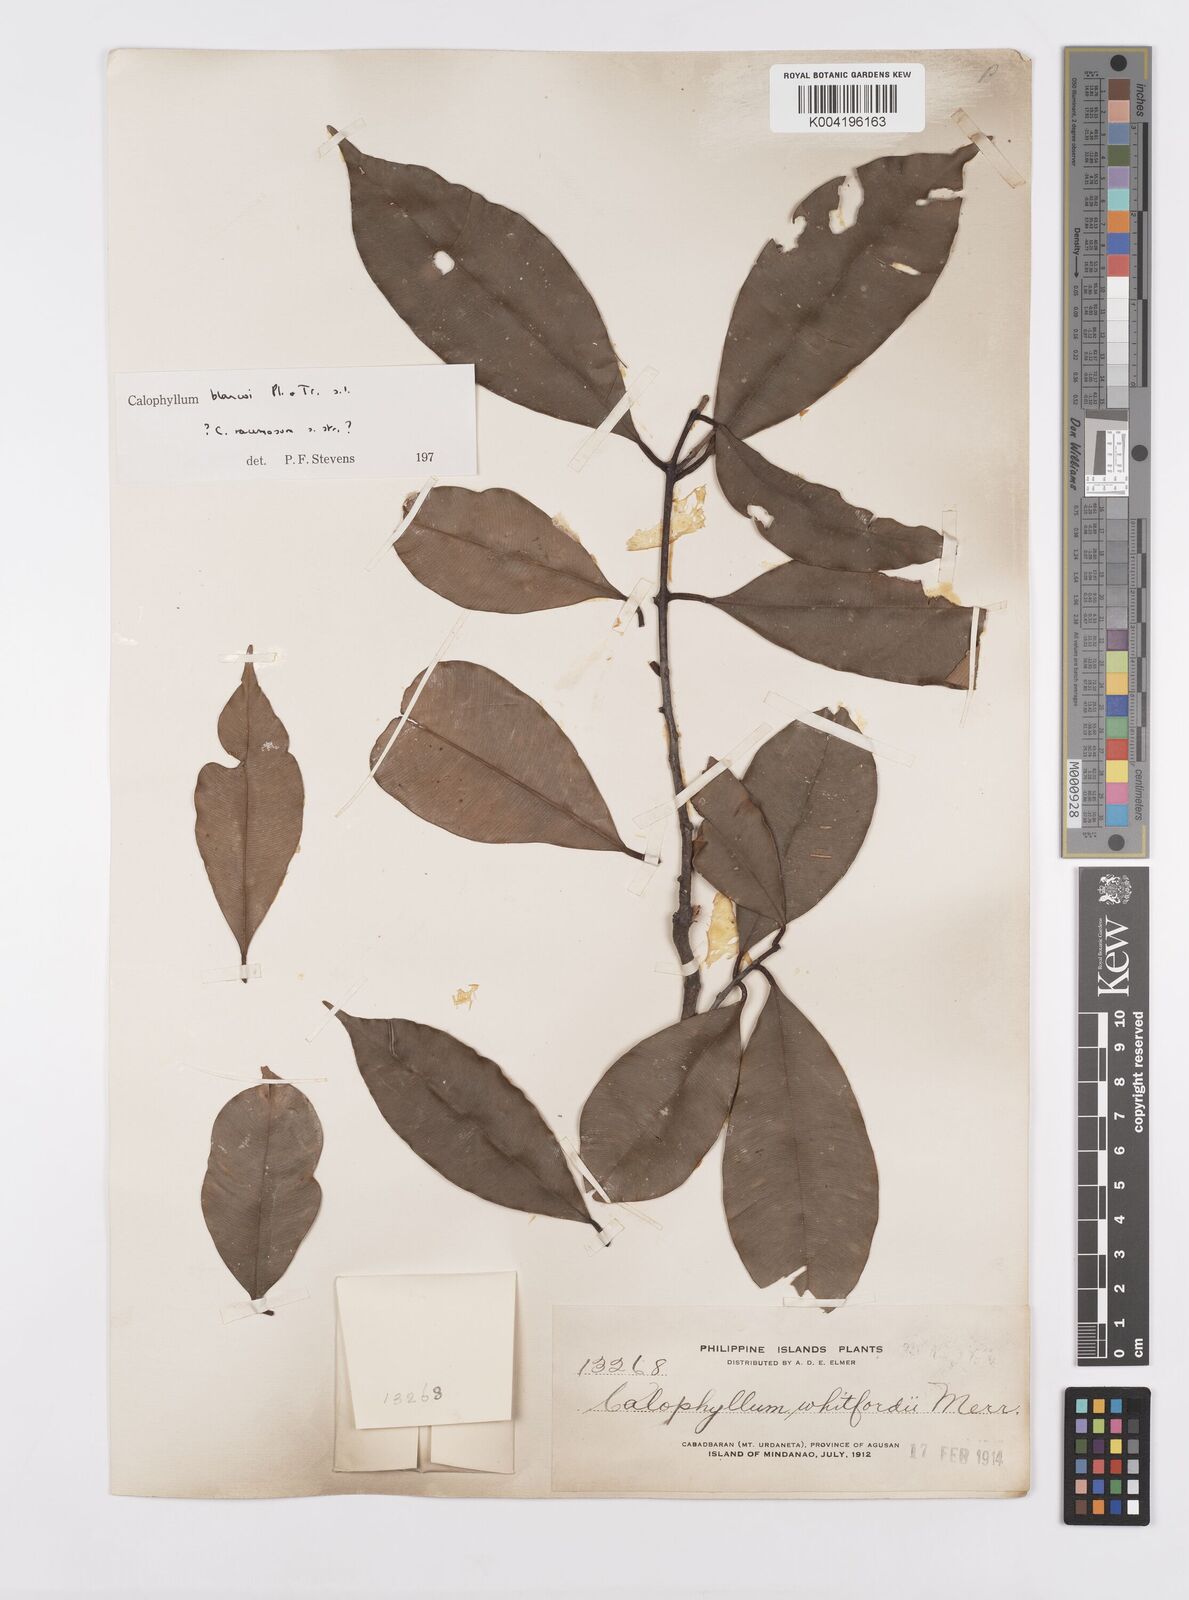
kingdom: Plantae
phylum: Tracheophyta
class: Magnoliopsida
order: Malpighiales
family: Calophyllaceae
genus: Calophyllum
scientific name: Calophyllum blancoi
